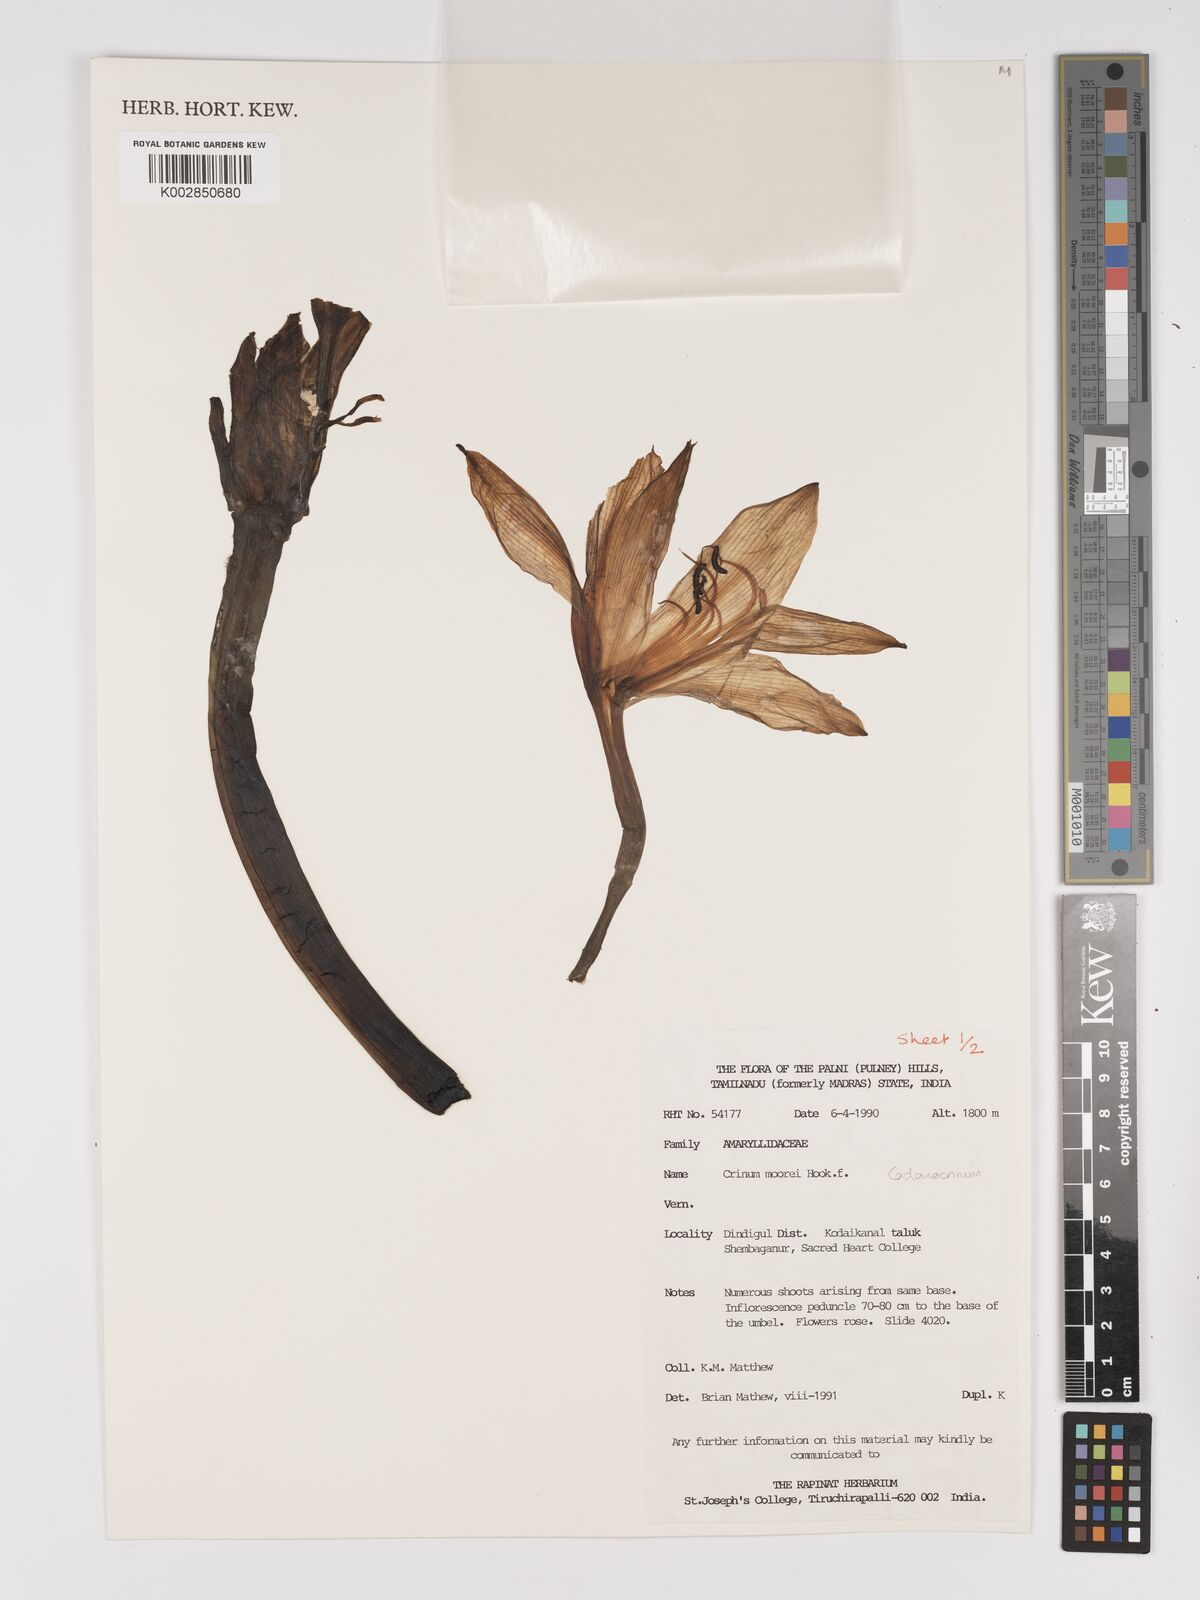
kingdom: Plantae
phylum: Tracheophyta
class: Liliopsida
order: Asparagales
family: Amaryllidaceae
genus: Crinum
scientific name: Crinum moorei
